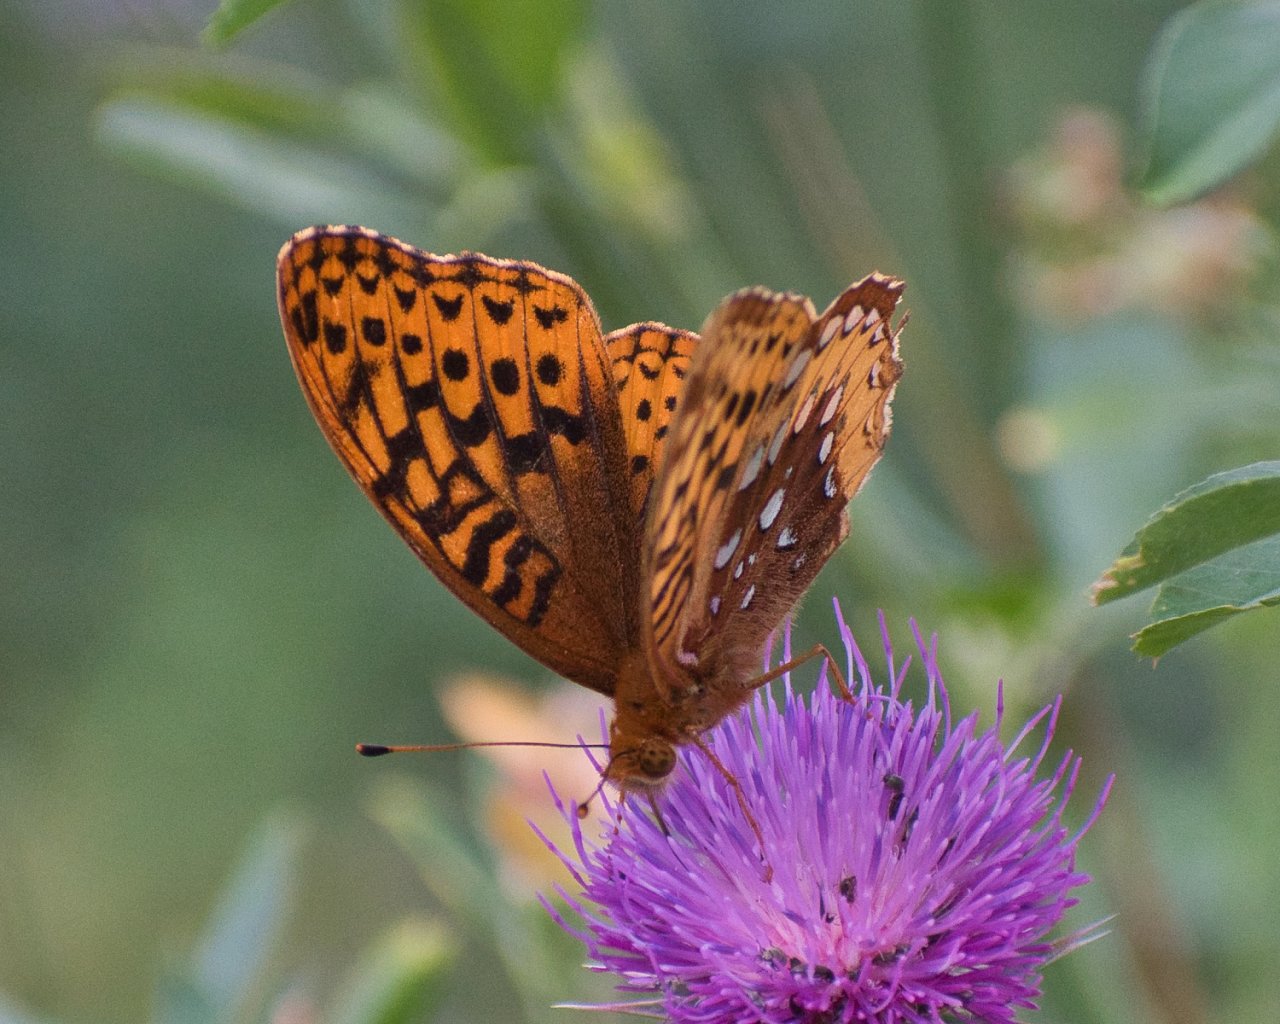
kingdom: Animalia
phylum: Arthropoda
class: Insecta
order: Lepidoptera
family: Nymphalidae
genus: Speyeria
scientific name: Speyeria cybele
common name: Great Spangled Fritillary
